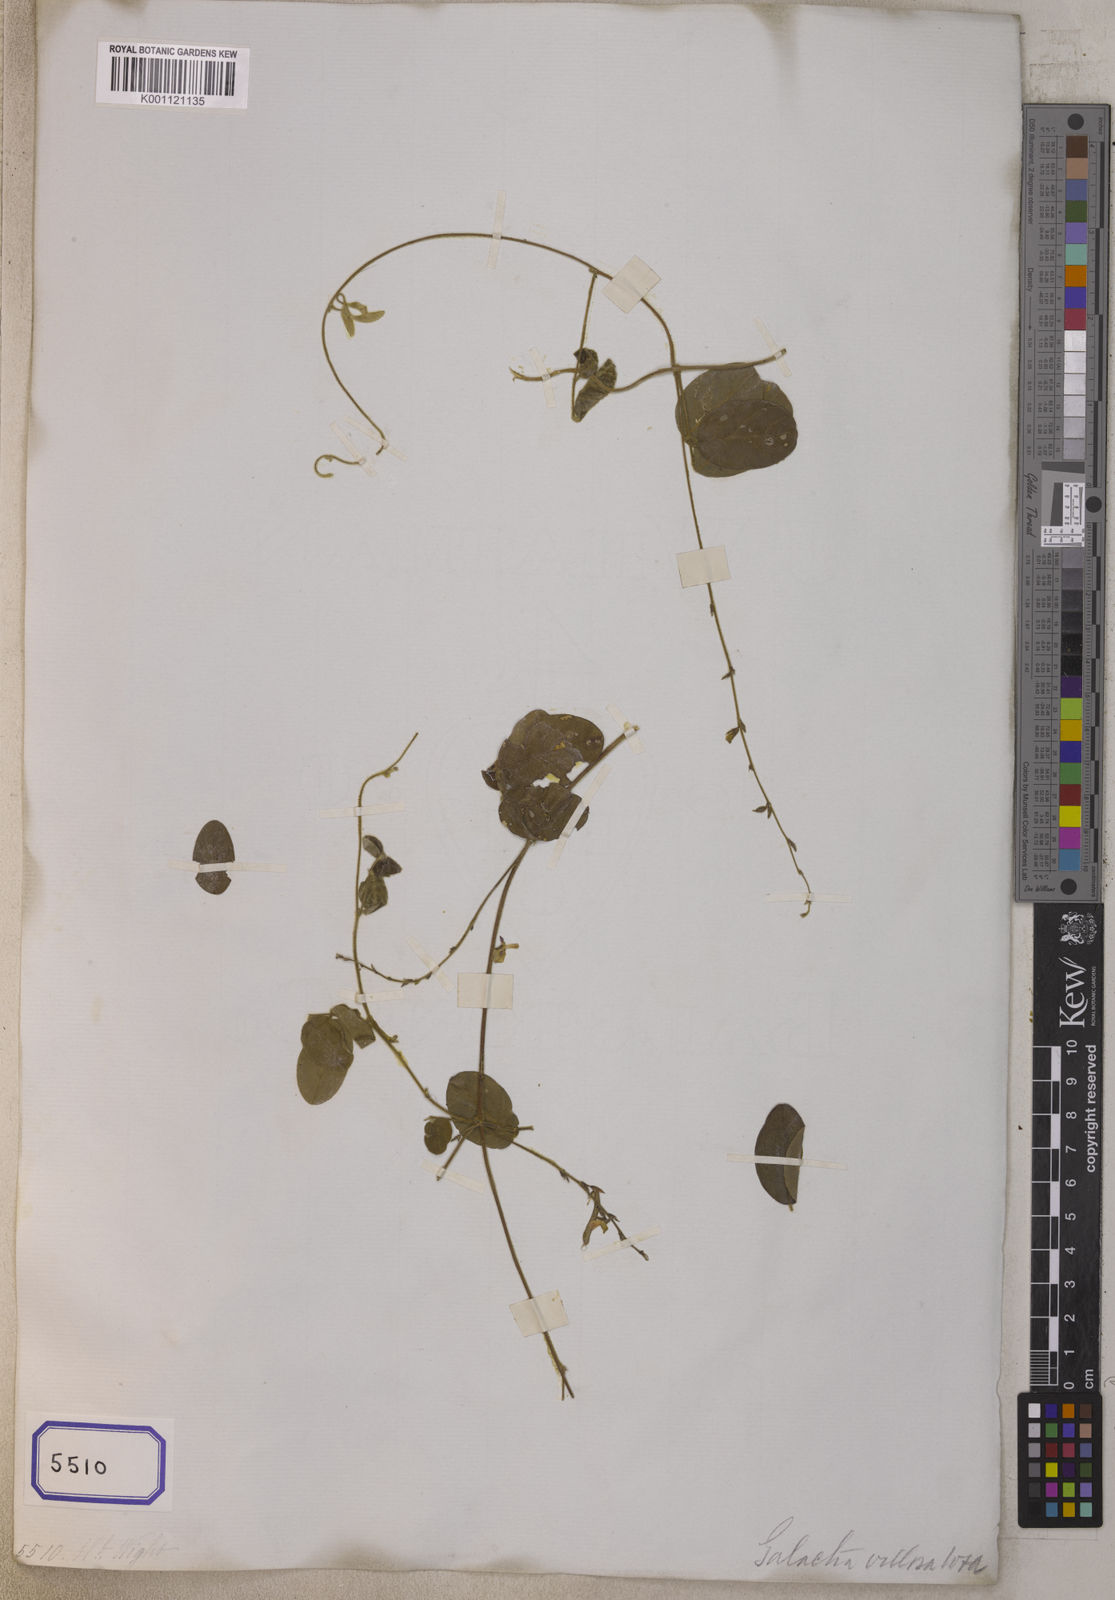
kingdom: Plantae
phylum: Tracheophyta
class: Magnoliopsida
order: Fabales
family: Fabaceae
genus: Teramnus
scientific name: Teramnus labialis
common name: Blue wiss
